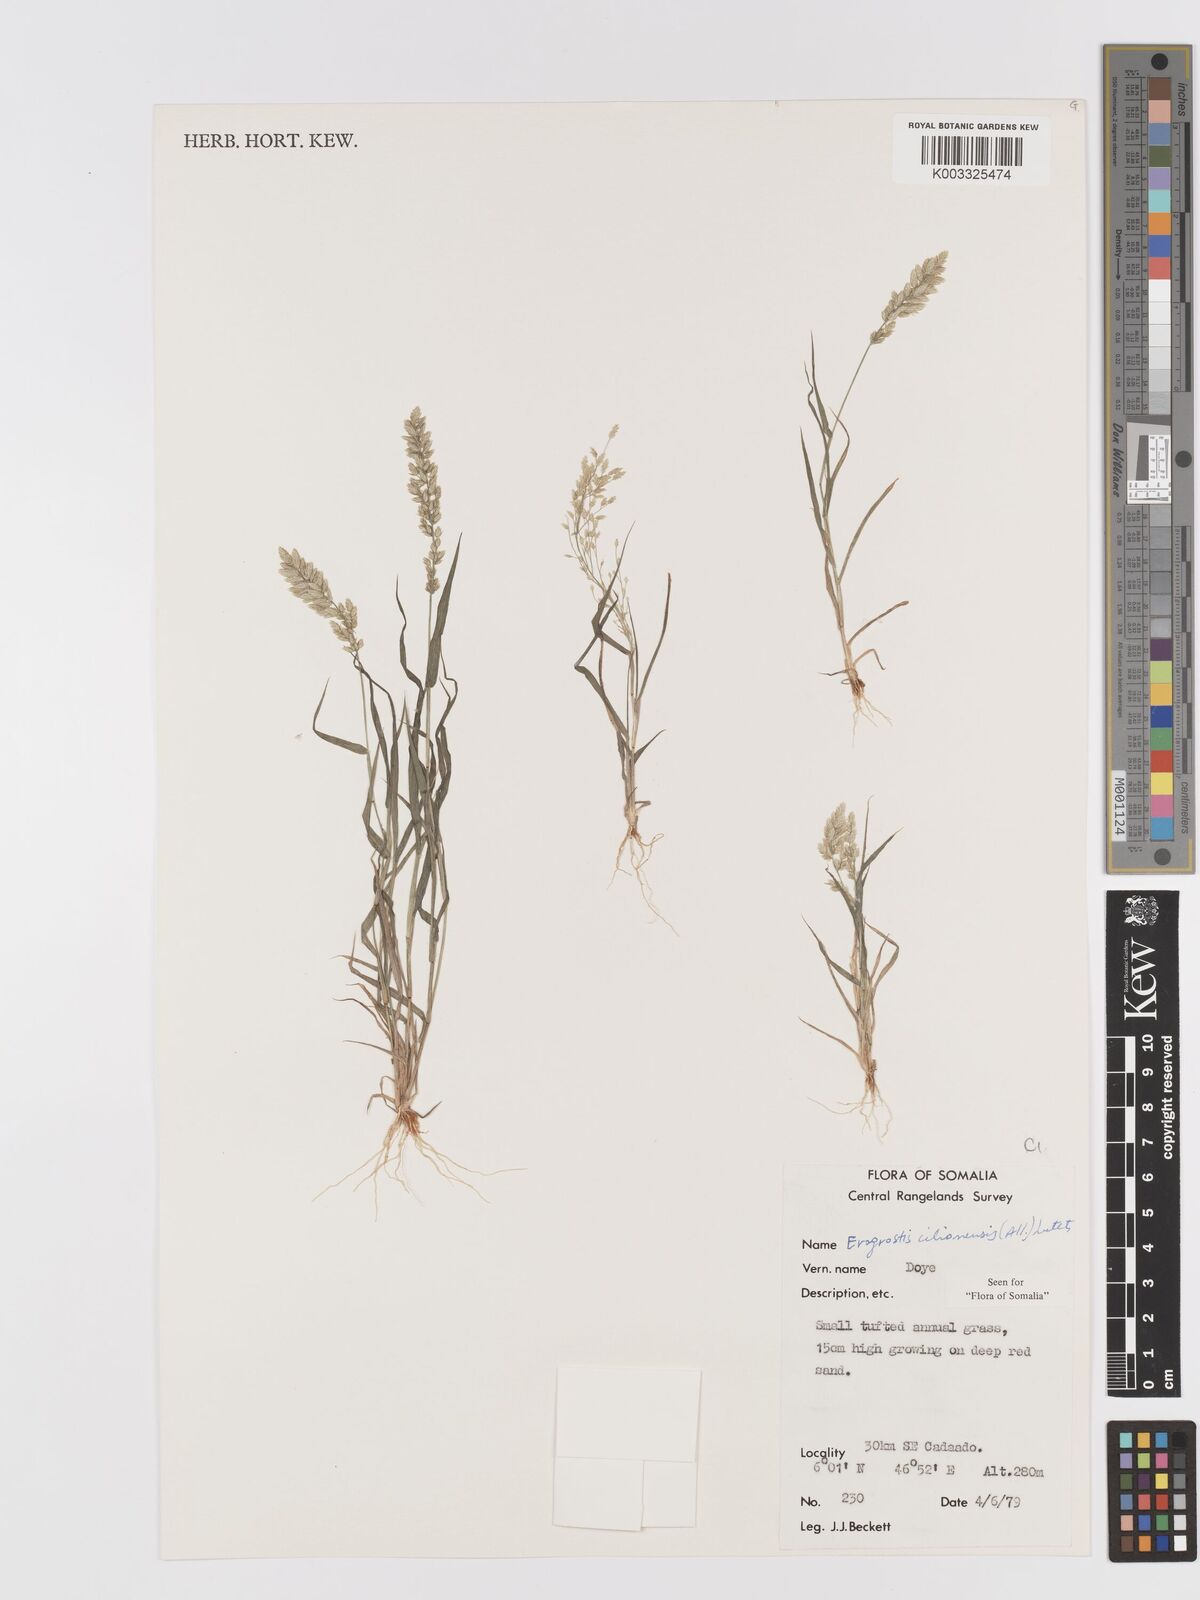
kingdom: Plantae
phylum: Tracheophyta
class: Liliopsida
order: Poales
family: Poaceae
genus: Eragrostis
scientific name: Eragrostis cilianensis
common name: Stinkgrass
